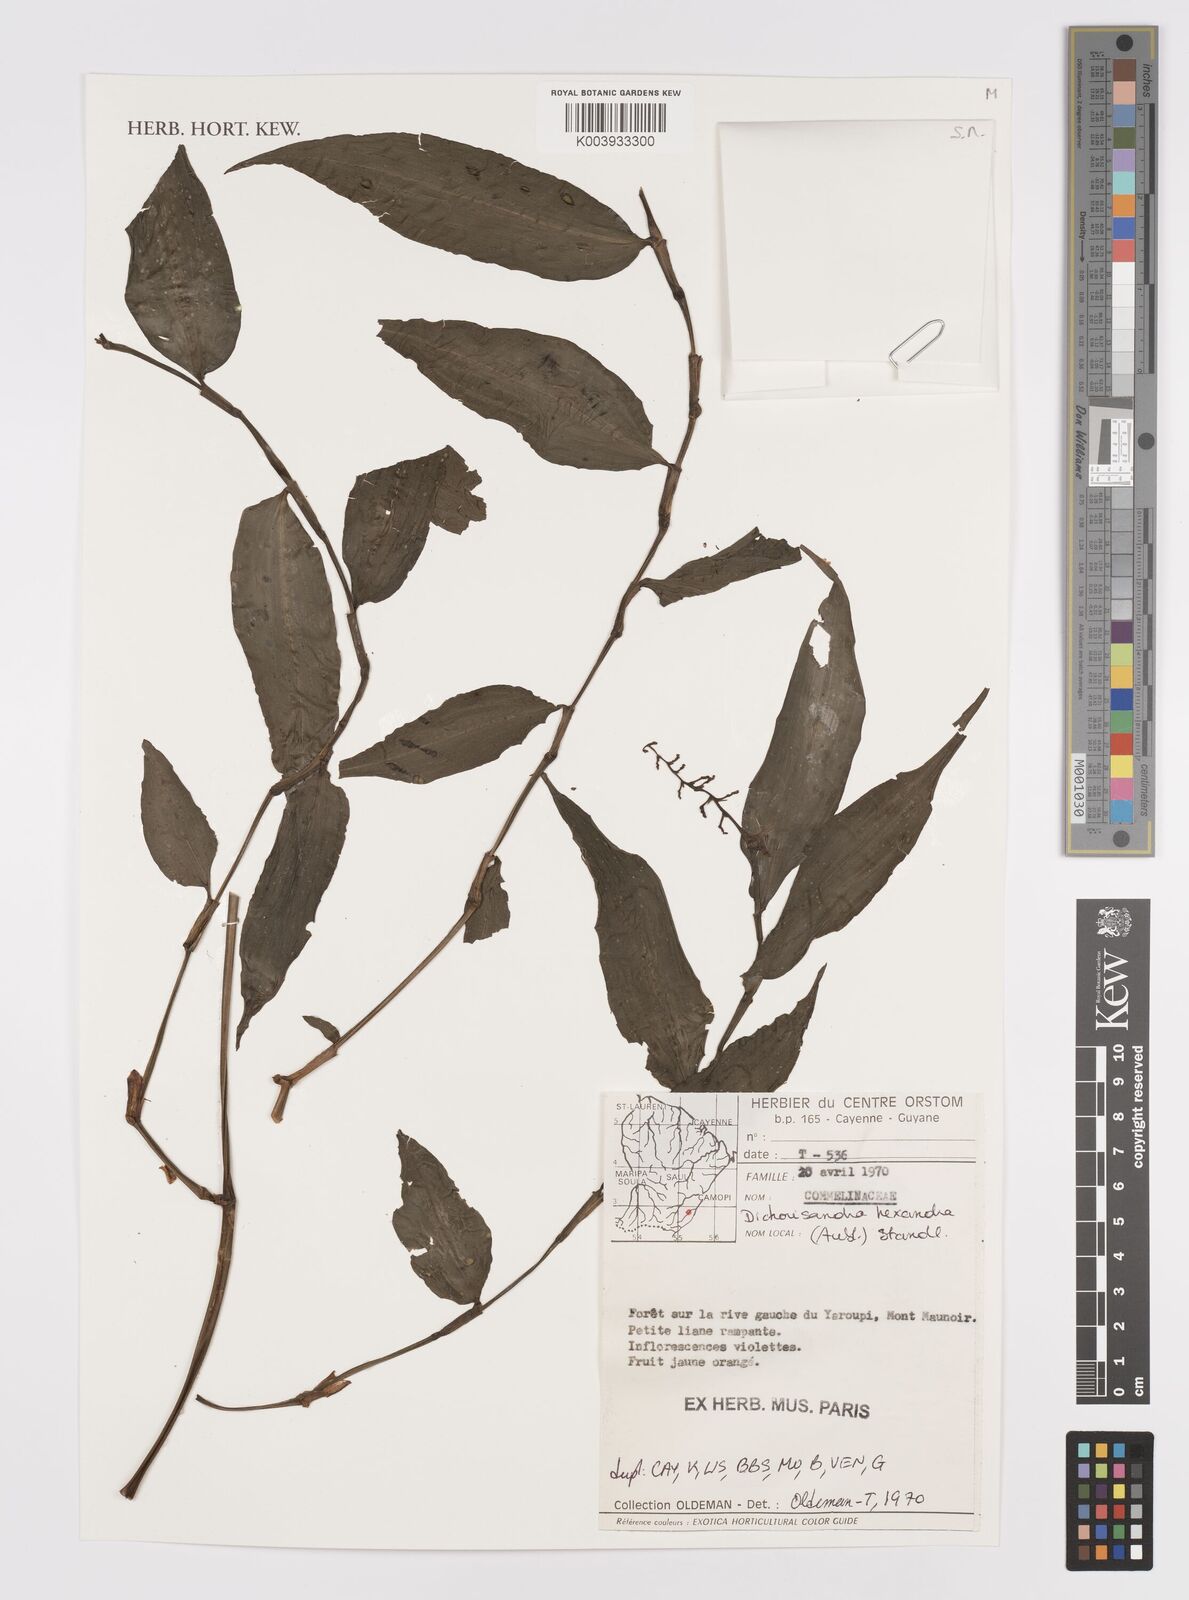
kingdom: Plantae
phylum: Tracheophyta
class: Liliopsida
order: Commelinales
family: Commelinaceae
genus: Dichorisandra
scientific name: Dichorisandra hexandra
